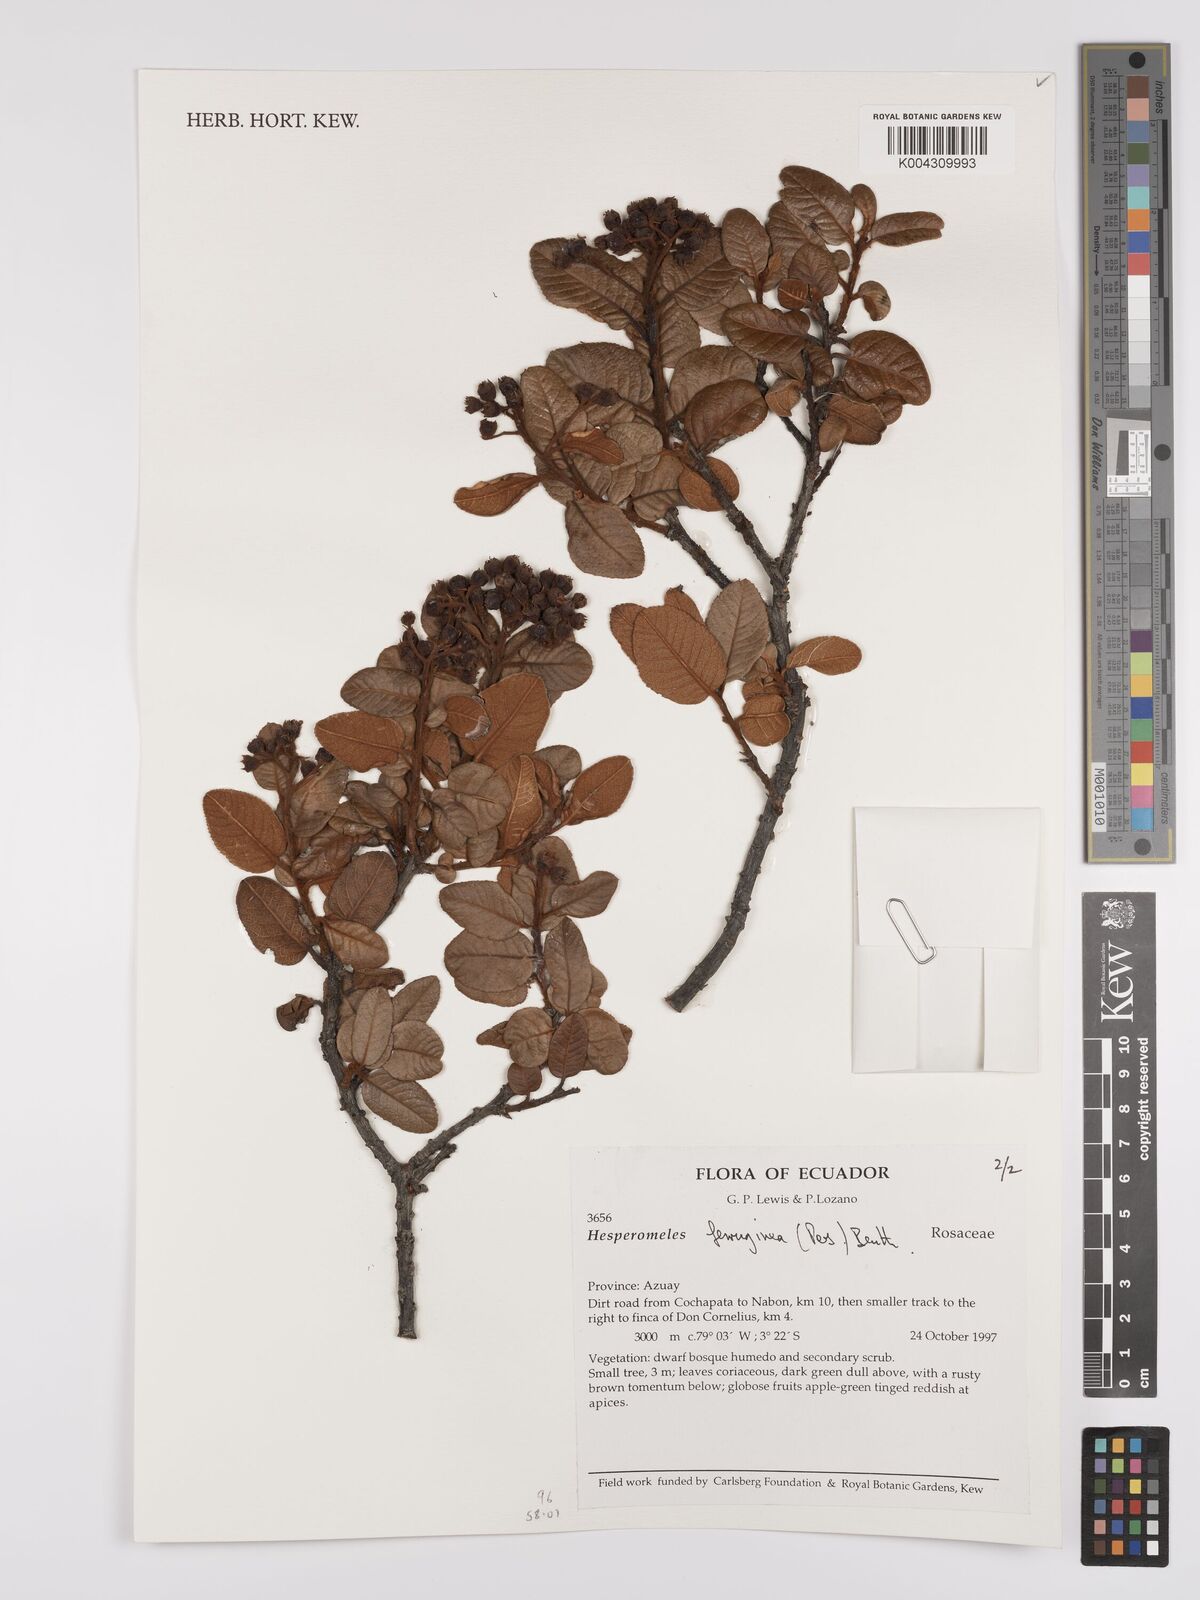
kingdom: Plantae
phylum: Tracheophyta
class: Magnoliopsida
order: Rosales
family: Rosaceae
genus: Hesperomeles
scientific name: Hesperomeles ferruginea
